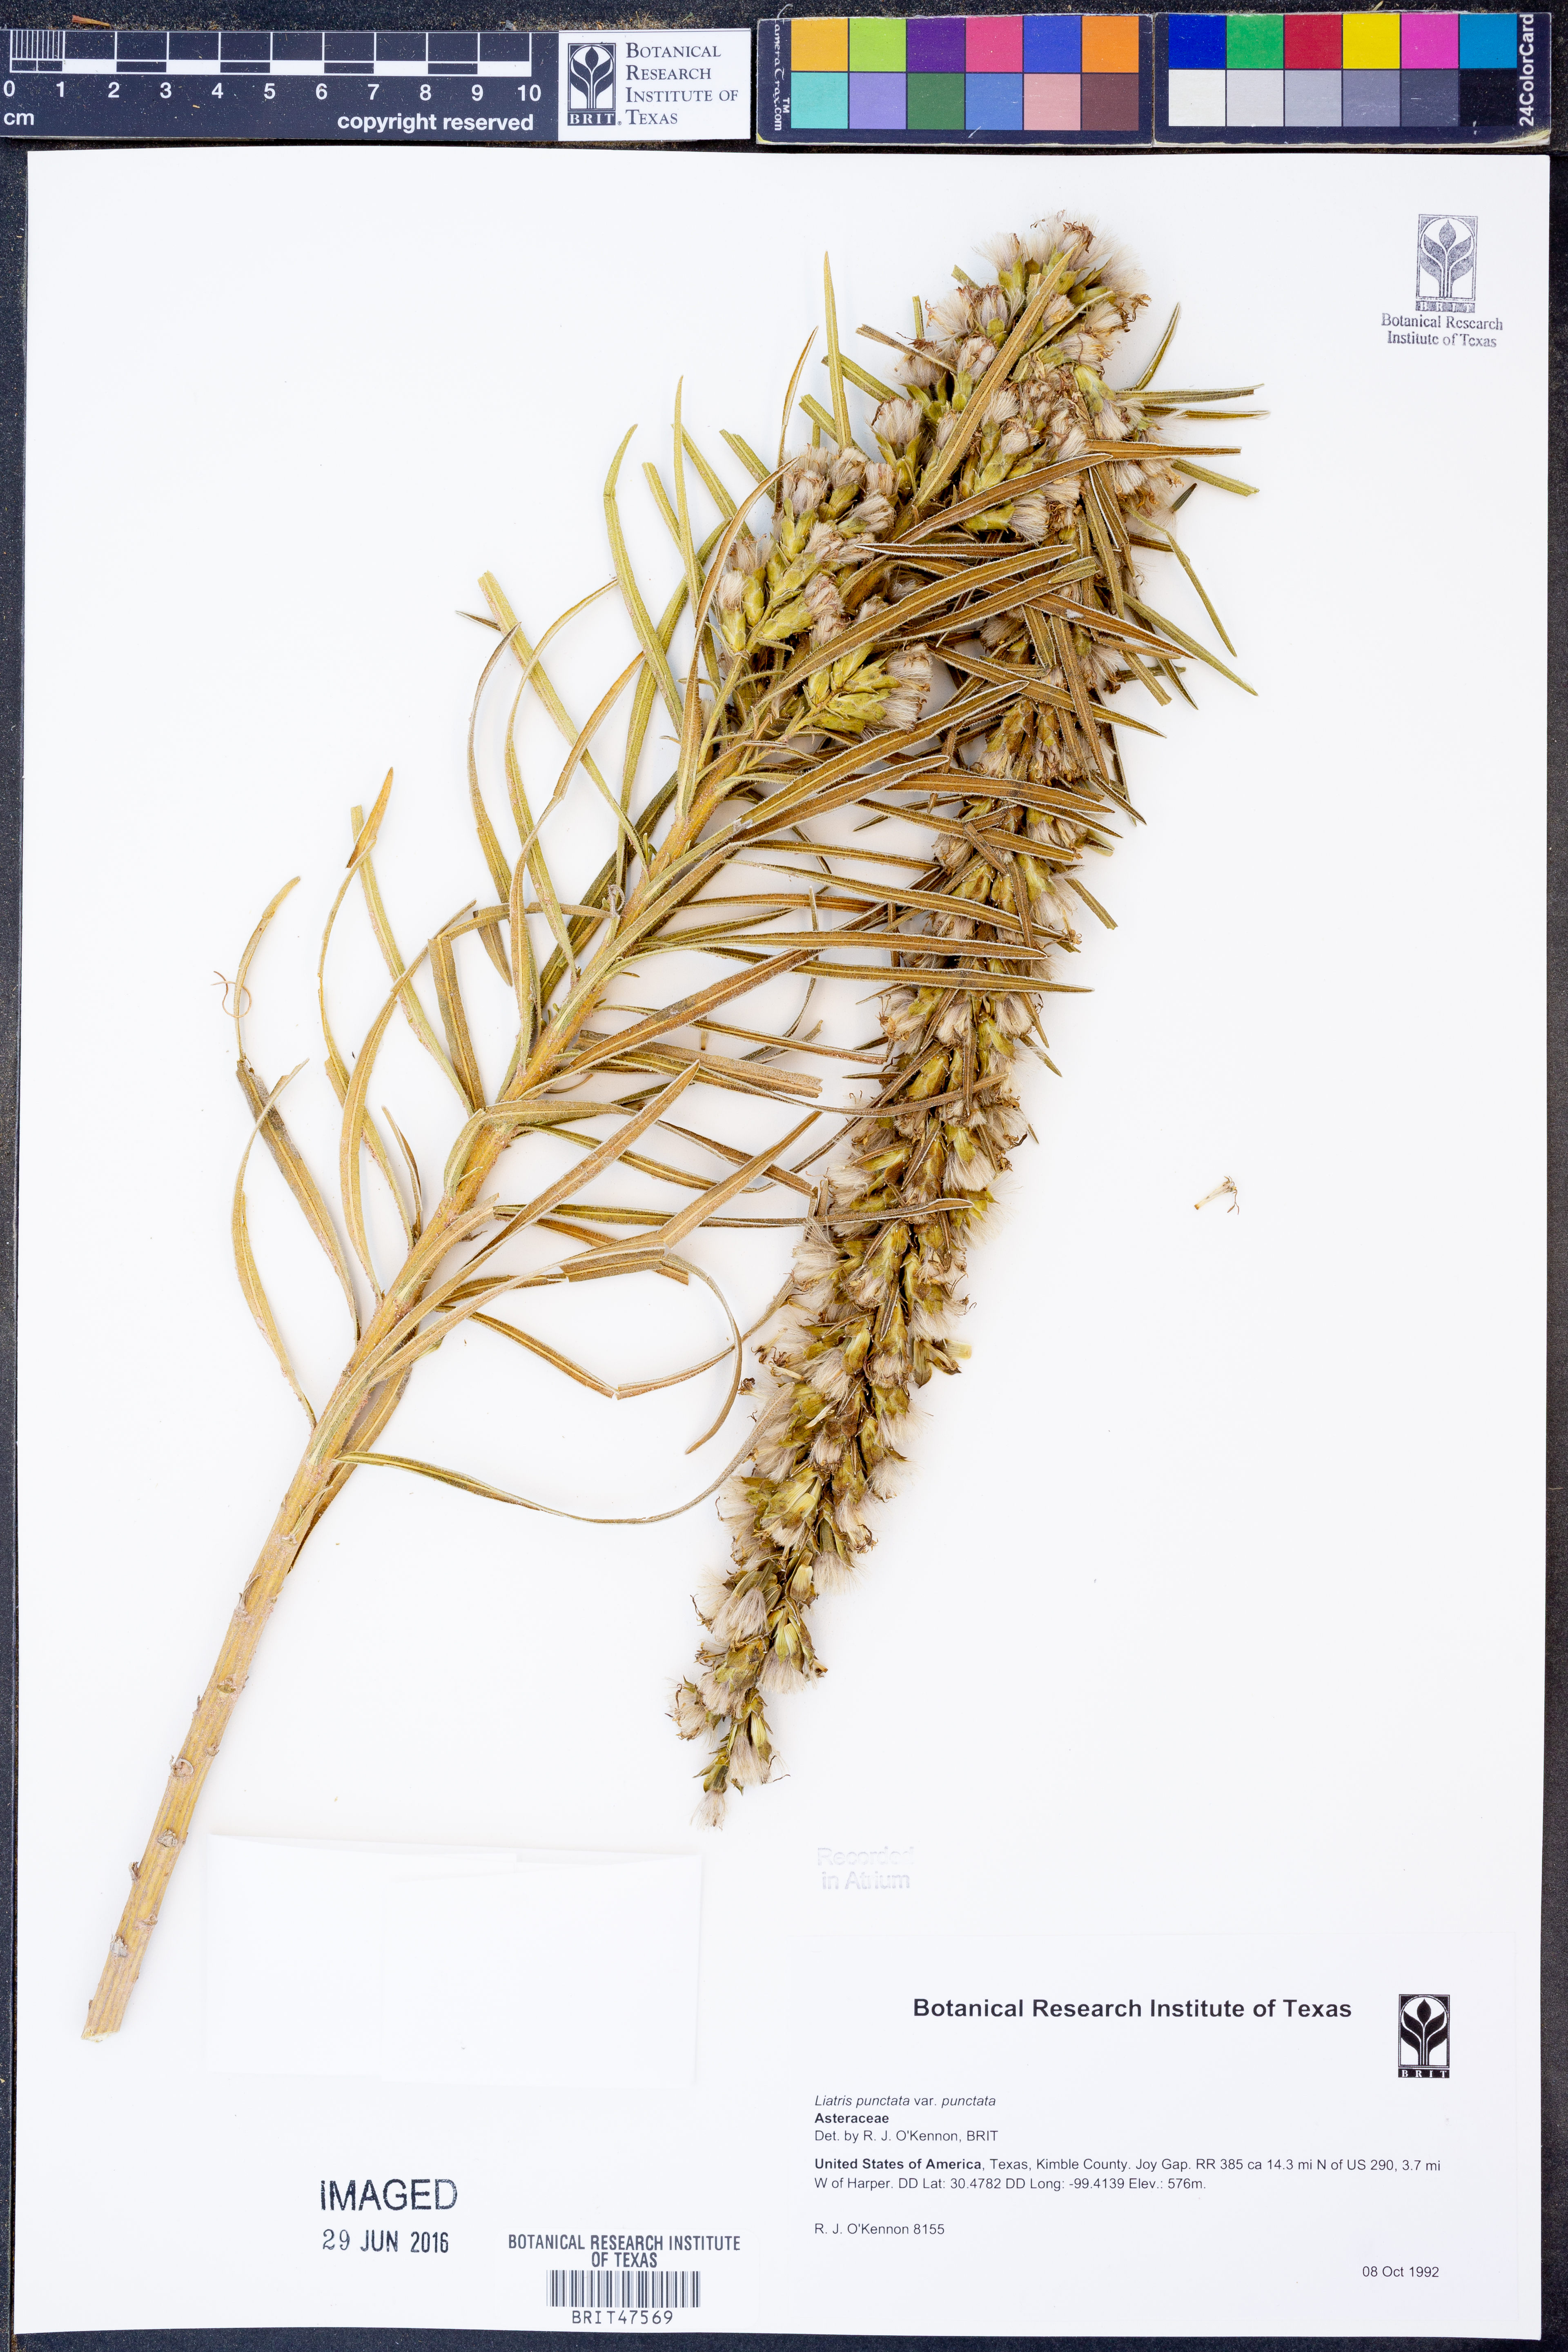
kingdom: Plantae
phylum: Tracheophyta
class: Magnoliopsida
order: Asterales
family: Asteraceae
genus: Liatris
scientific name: Liatris punctata
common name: Dotted gayfeather
